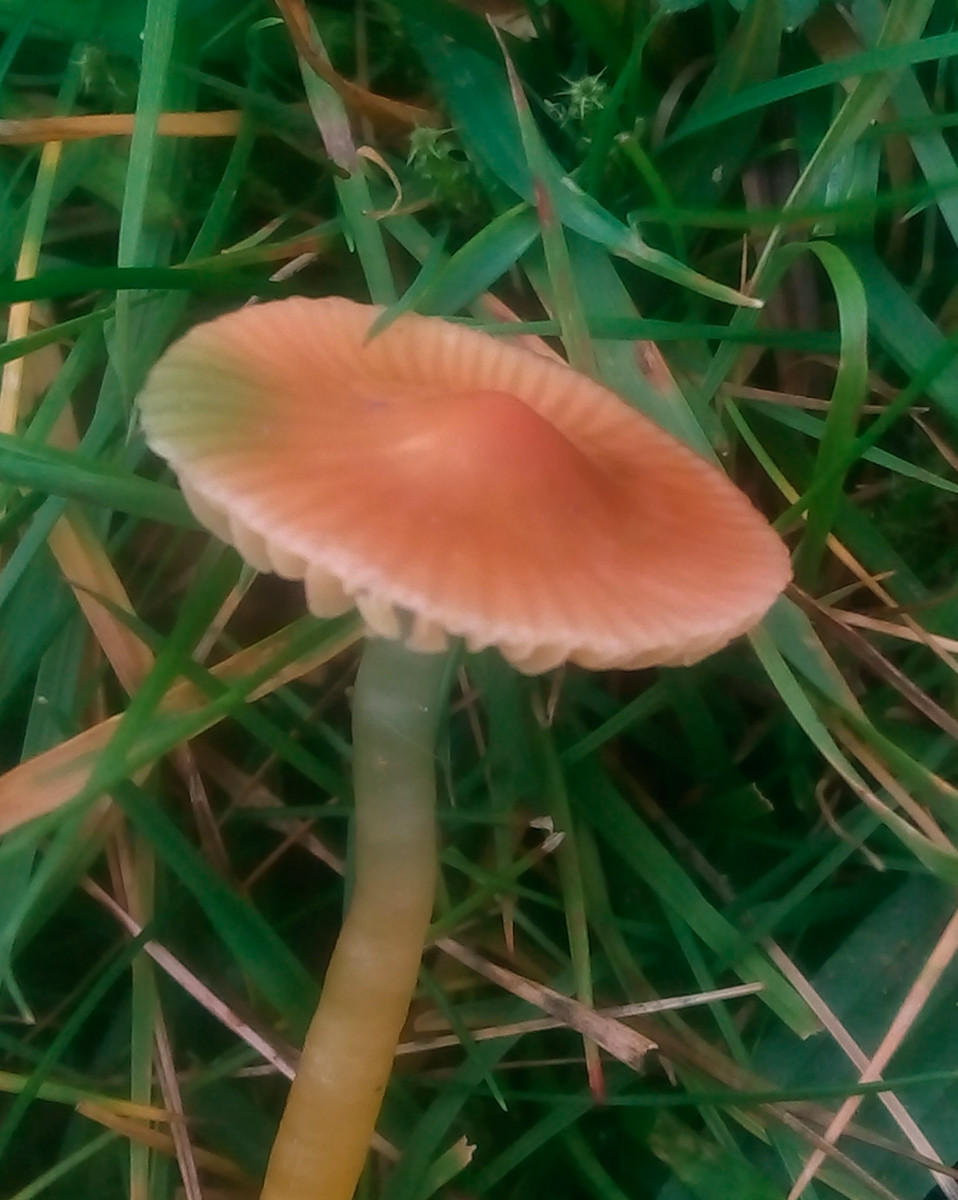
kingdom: Fungi
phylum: Basidiomycota
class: Agaricomycetes
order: Agaricales
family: Hygrophoraceae
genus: Gliophorus
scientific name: Gliophorus psittacinus
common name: papegøje-vokshat
